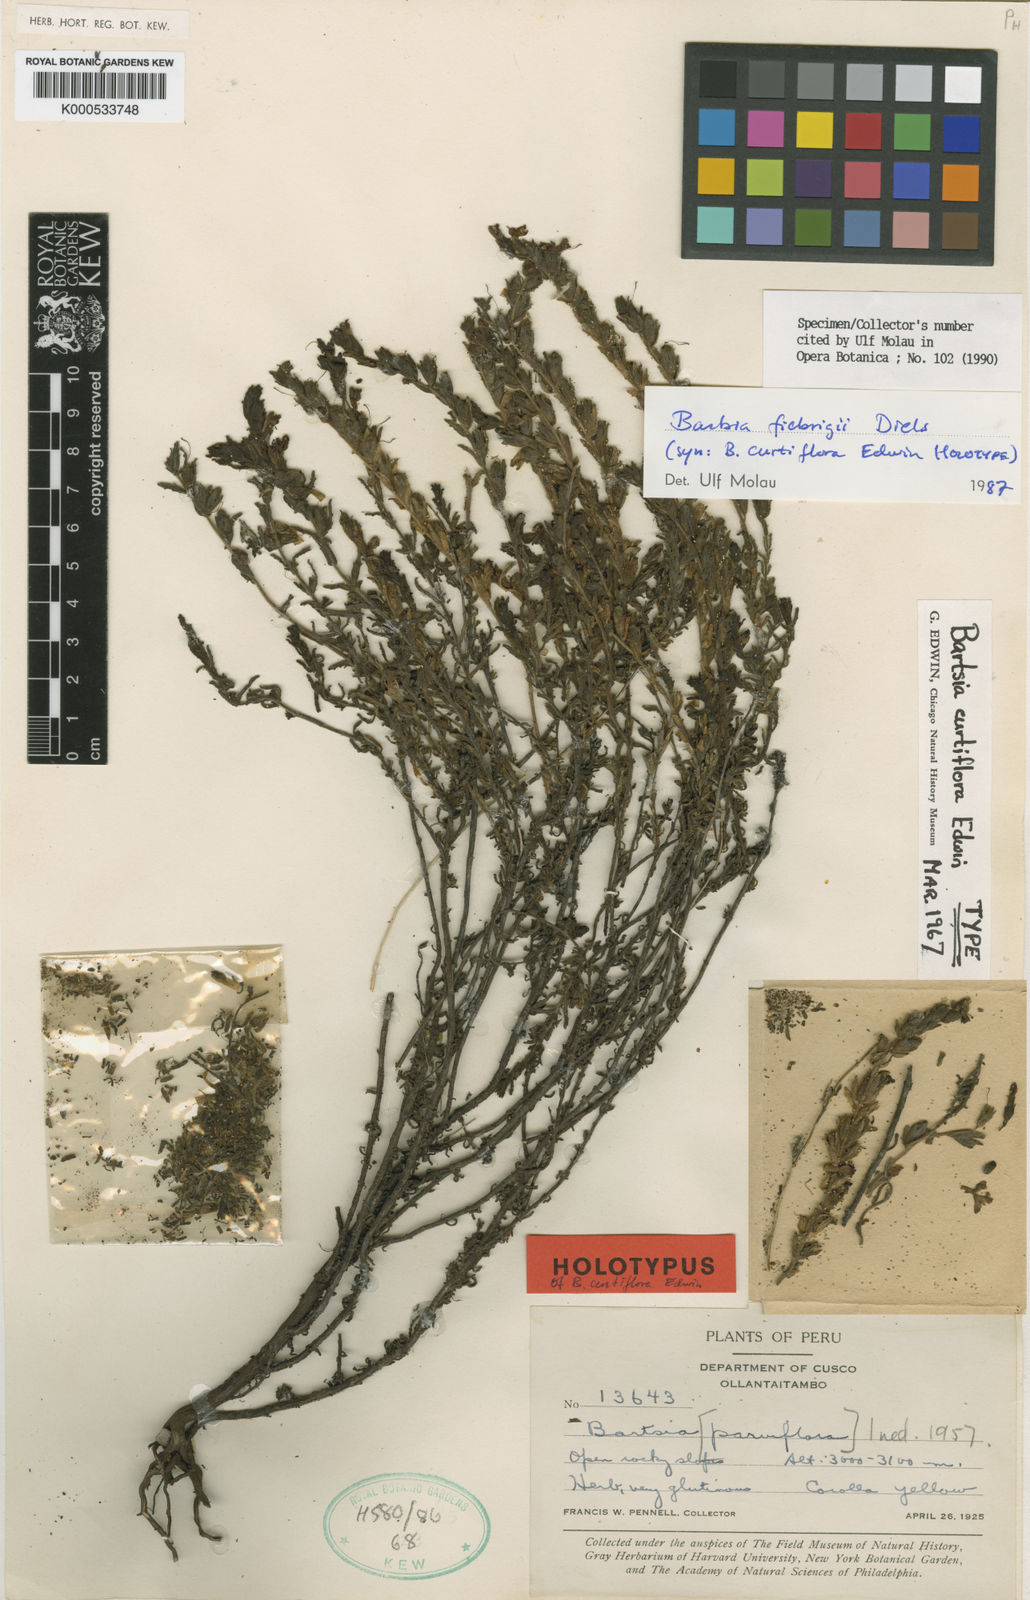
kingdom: Plantae
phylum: Tracheophyta
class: Magnoliopsida
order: Lamiales
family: Orobanchaceae
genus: Neobartsia
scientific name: Neobartsia fiebrigii
